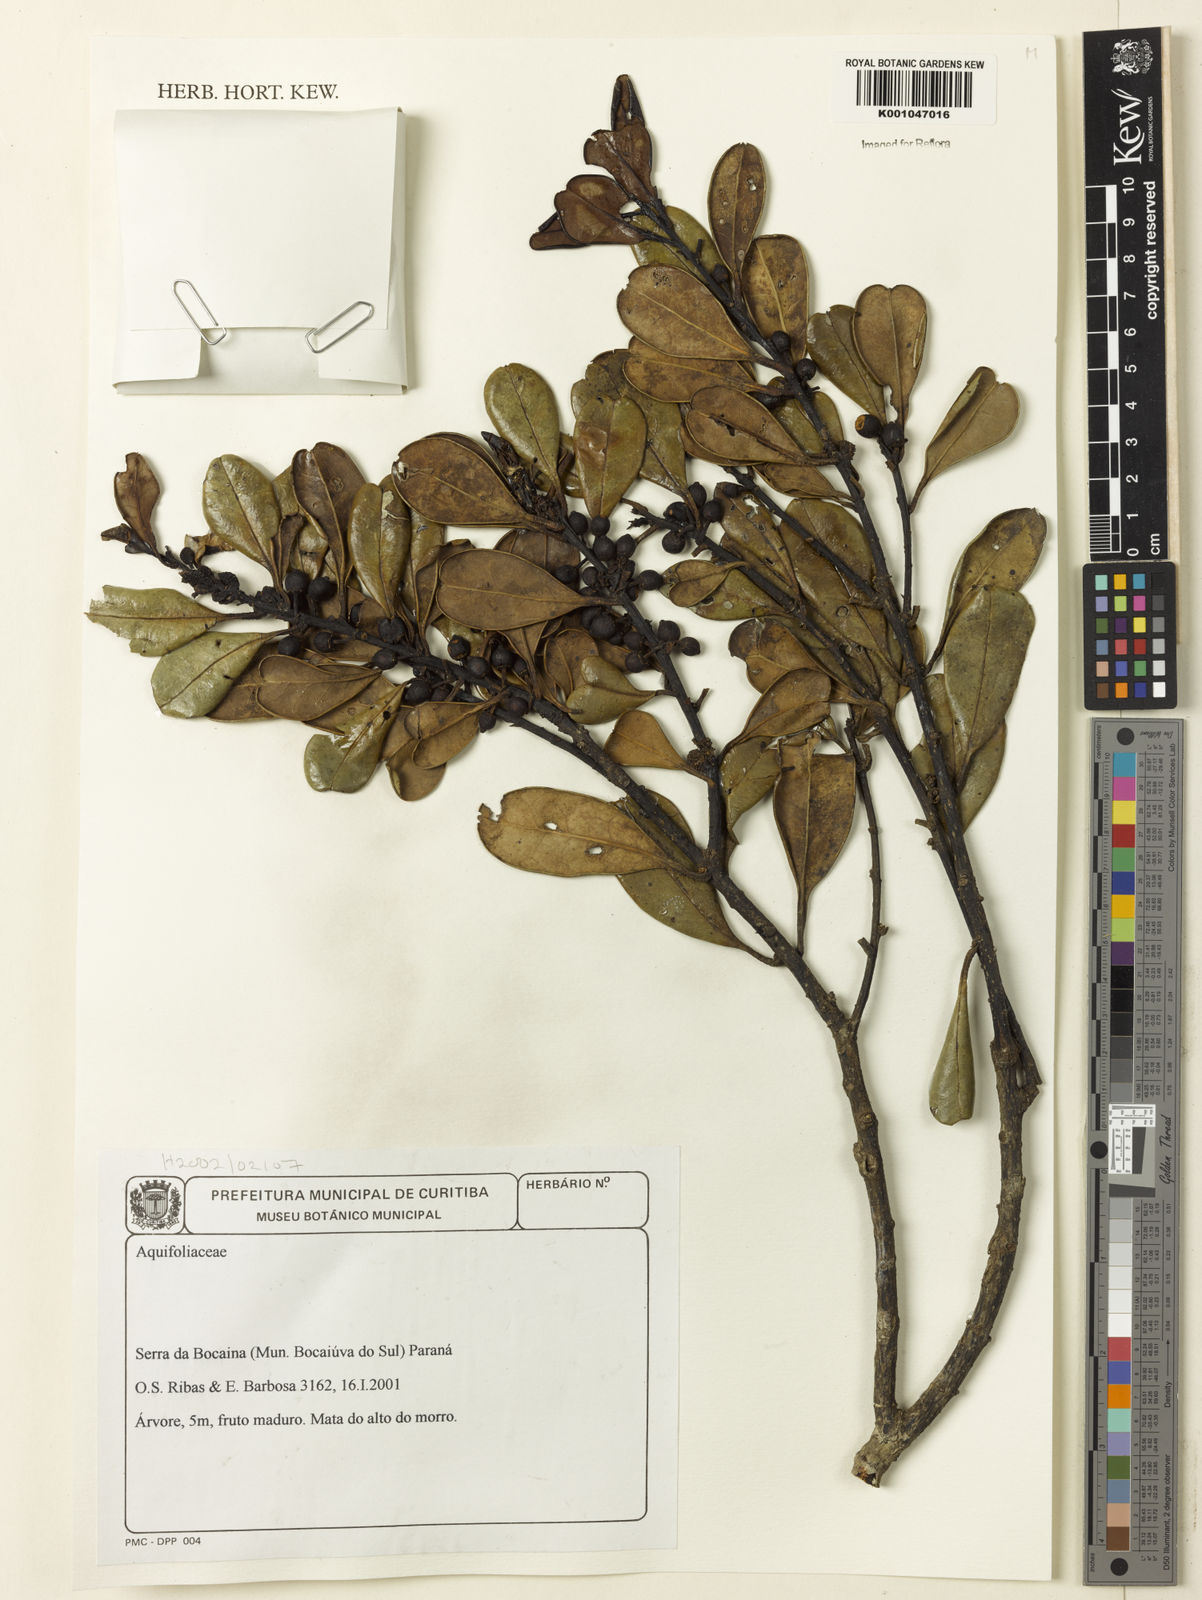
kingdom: Plantae
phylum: Tracheophyta
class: Magnoliopsida
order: Aquifoliales
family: Aquifoliaceae
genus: Ilex
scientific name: Ilex
